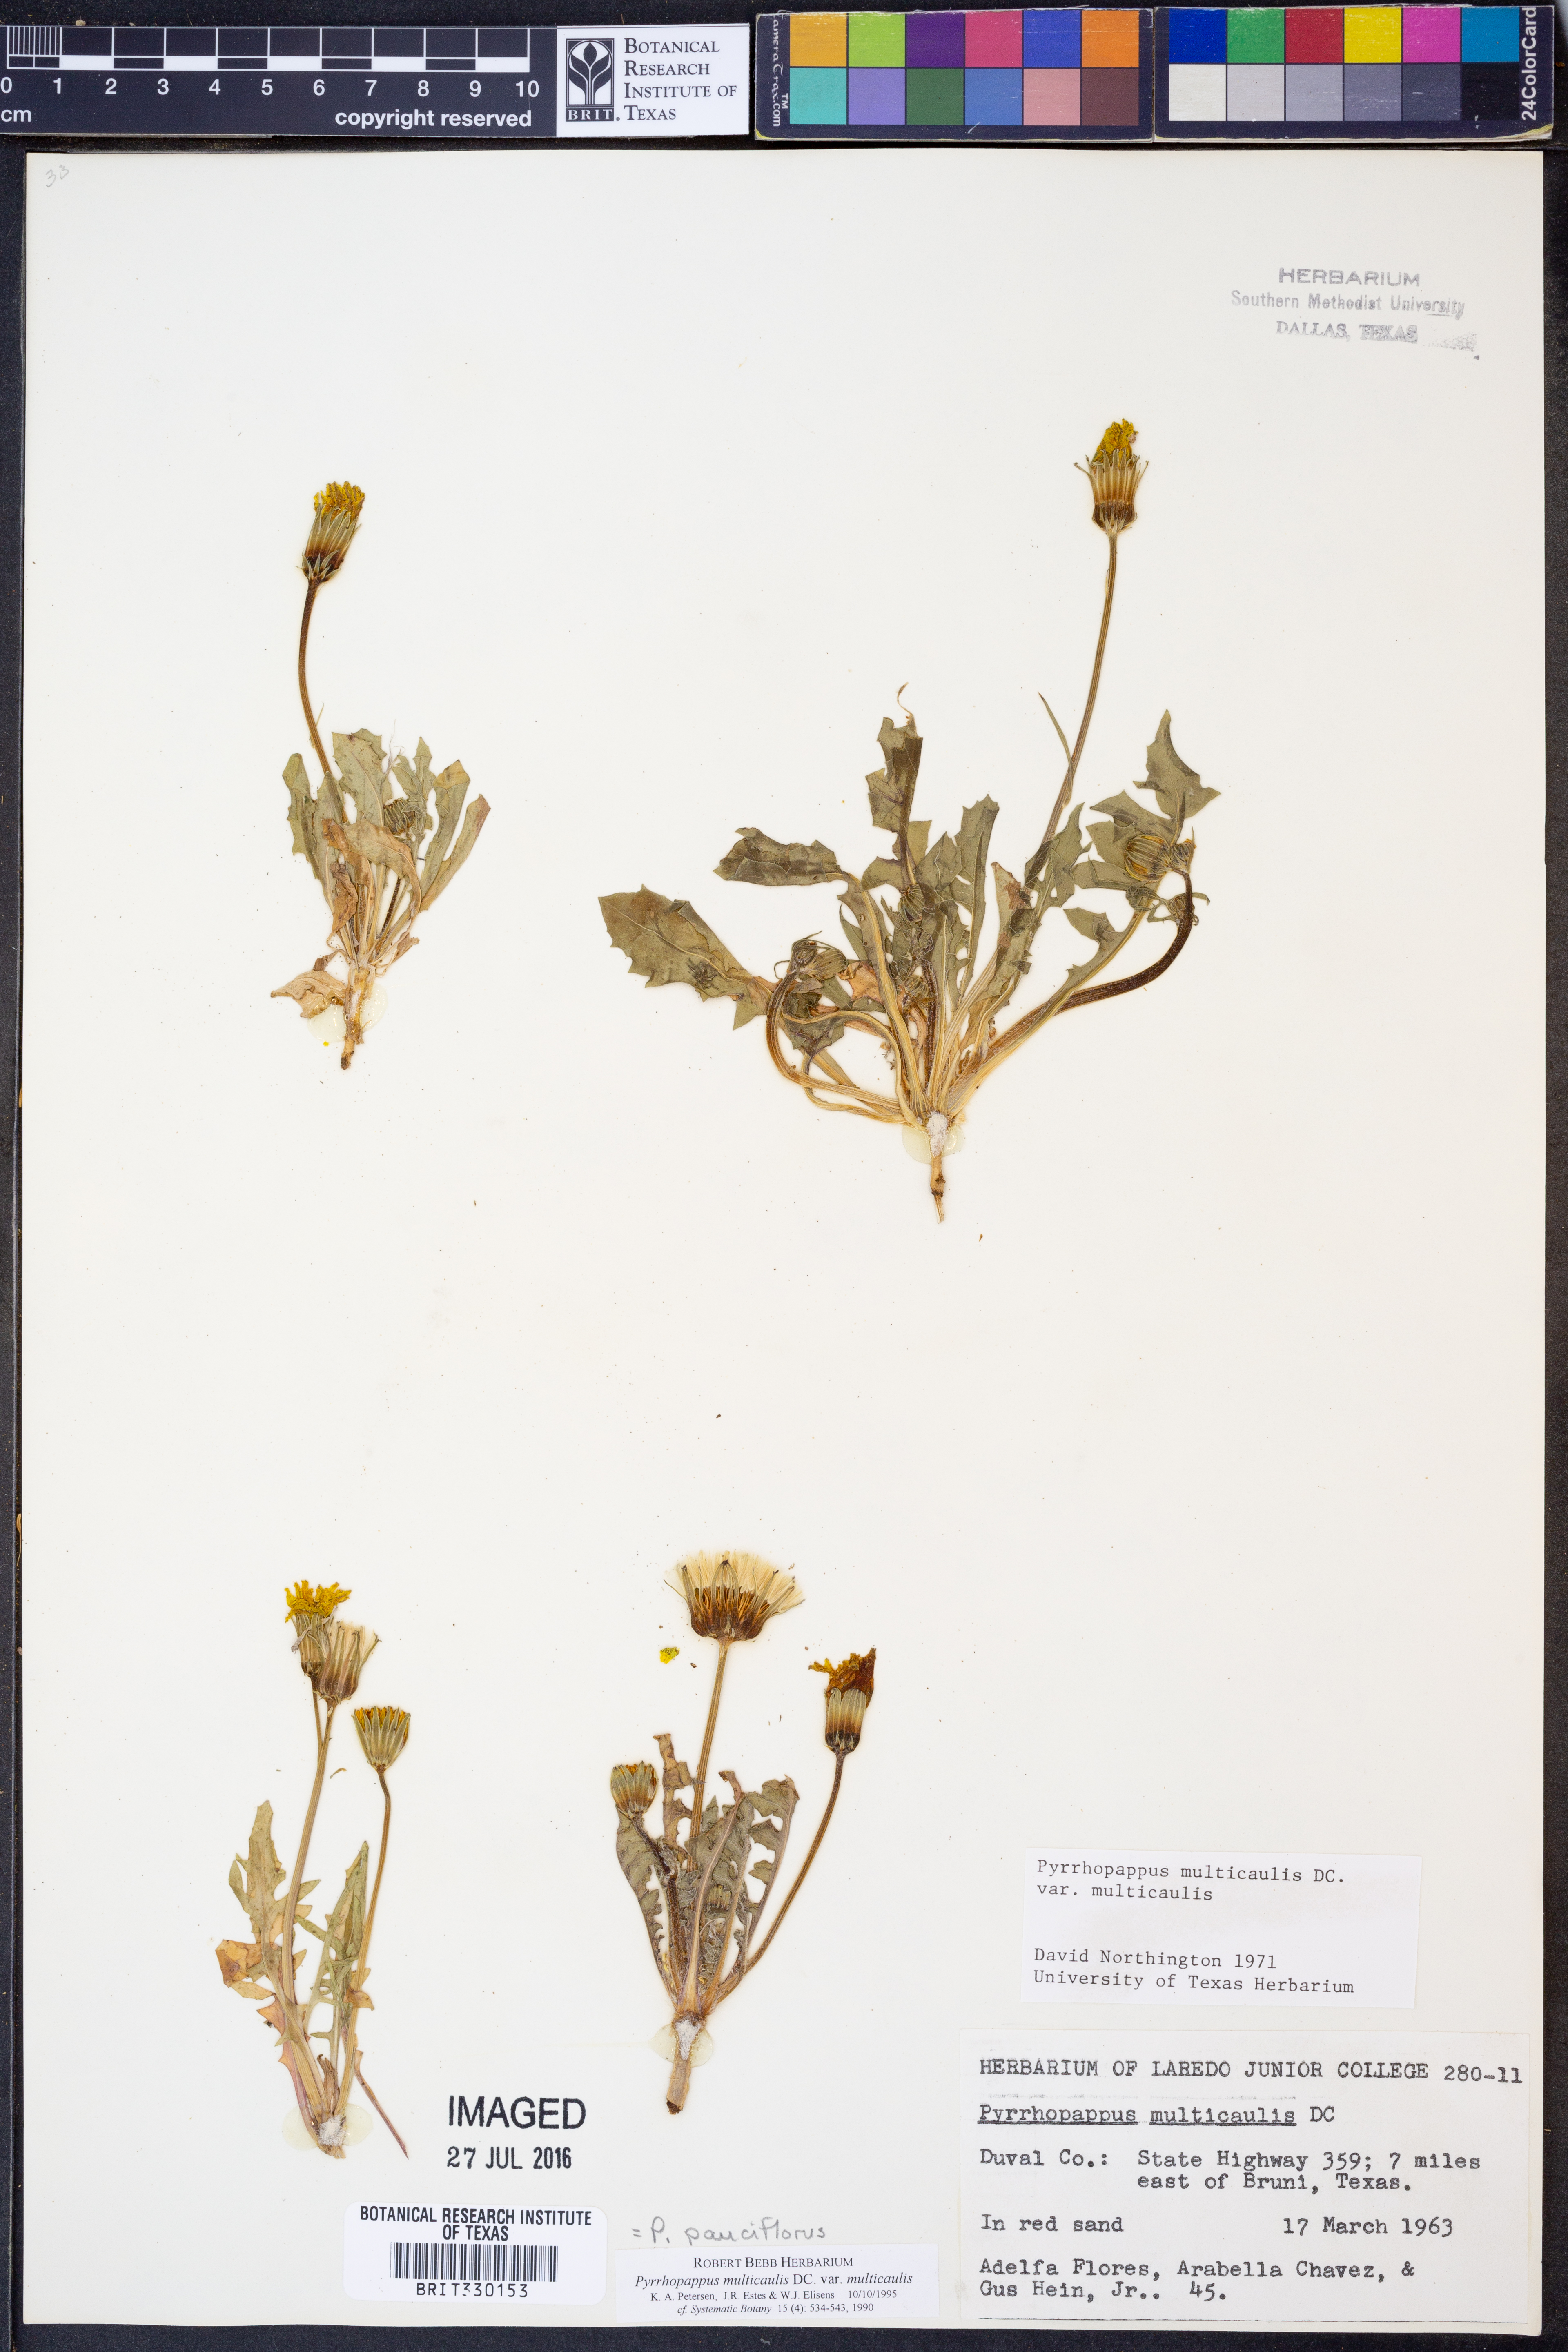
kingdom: Plantae
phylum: Tracheophyta
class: Magnoliopsida
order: Asterales
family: Asteraceae
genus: Pyrrhopappus
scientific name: Pyrrhopappus pauciflorus
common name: Texas false dandelion
